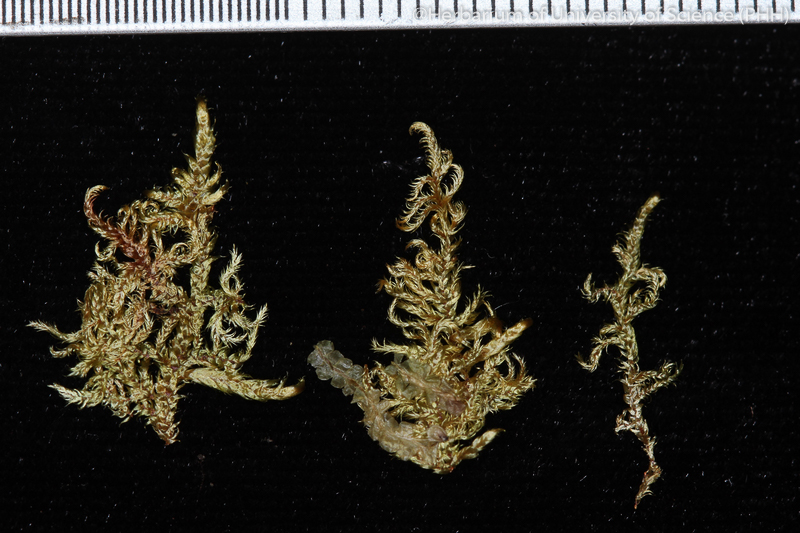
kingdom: Plantae
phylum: Bryophyta
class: Bryopsida
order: Hypnales
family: Pylaisiadelphaceae
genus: Wijkia
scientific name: Wijkia hornschuchii
